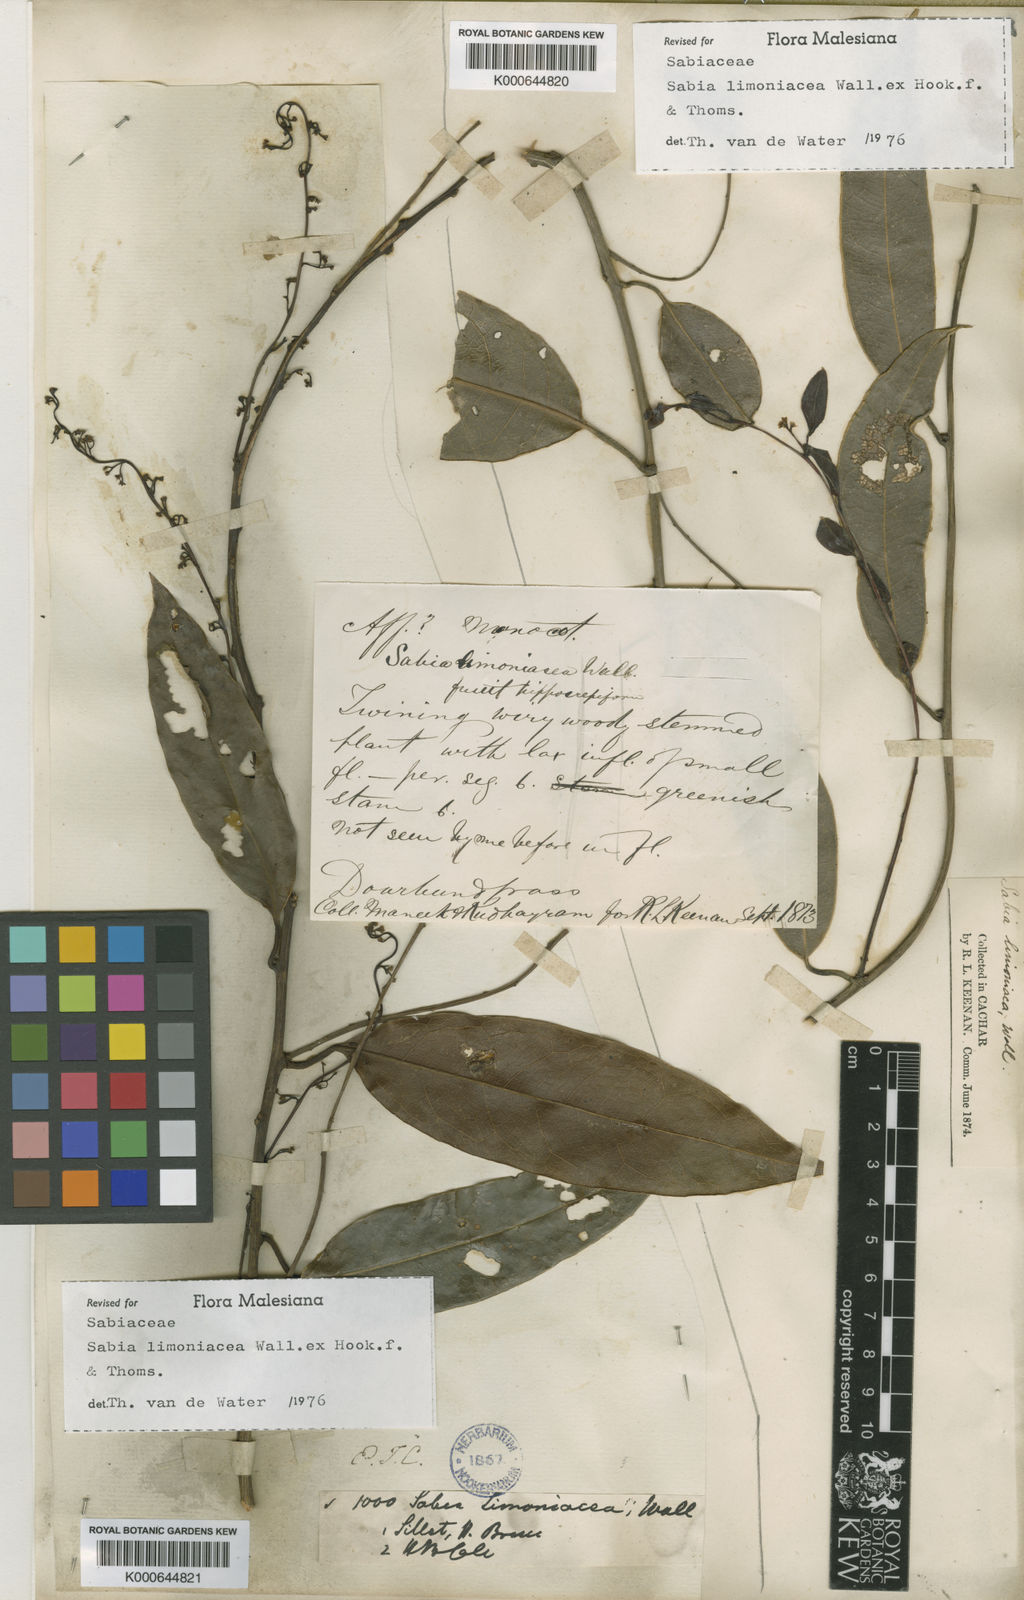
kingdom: Plantae
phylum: Tracheophyta
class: Magnoliopsida
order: Proteales
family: Sabiaceae
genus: Sabia
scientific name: Sabia limoniacea
